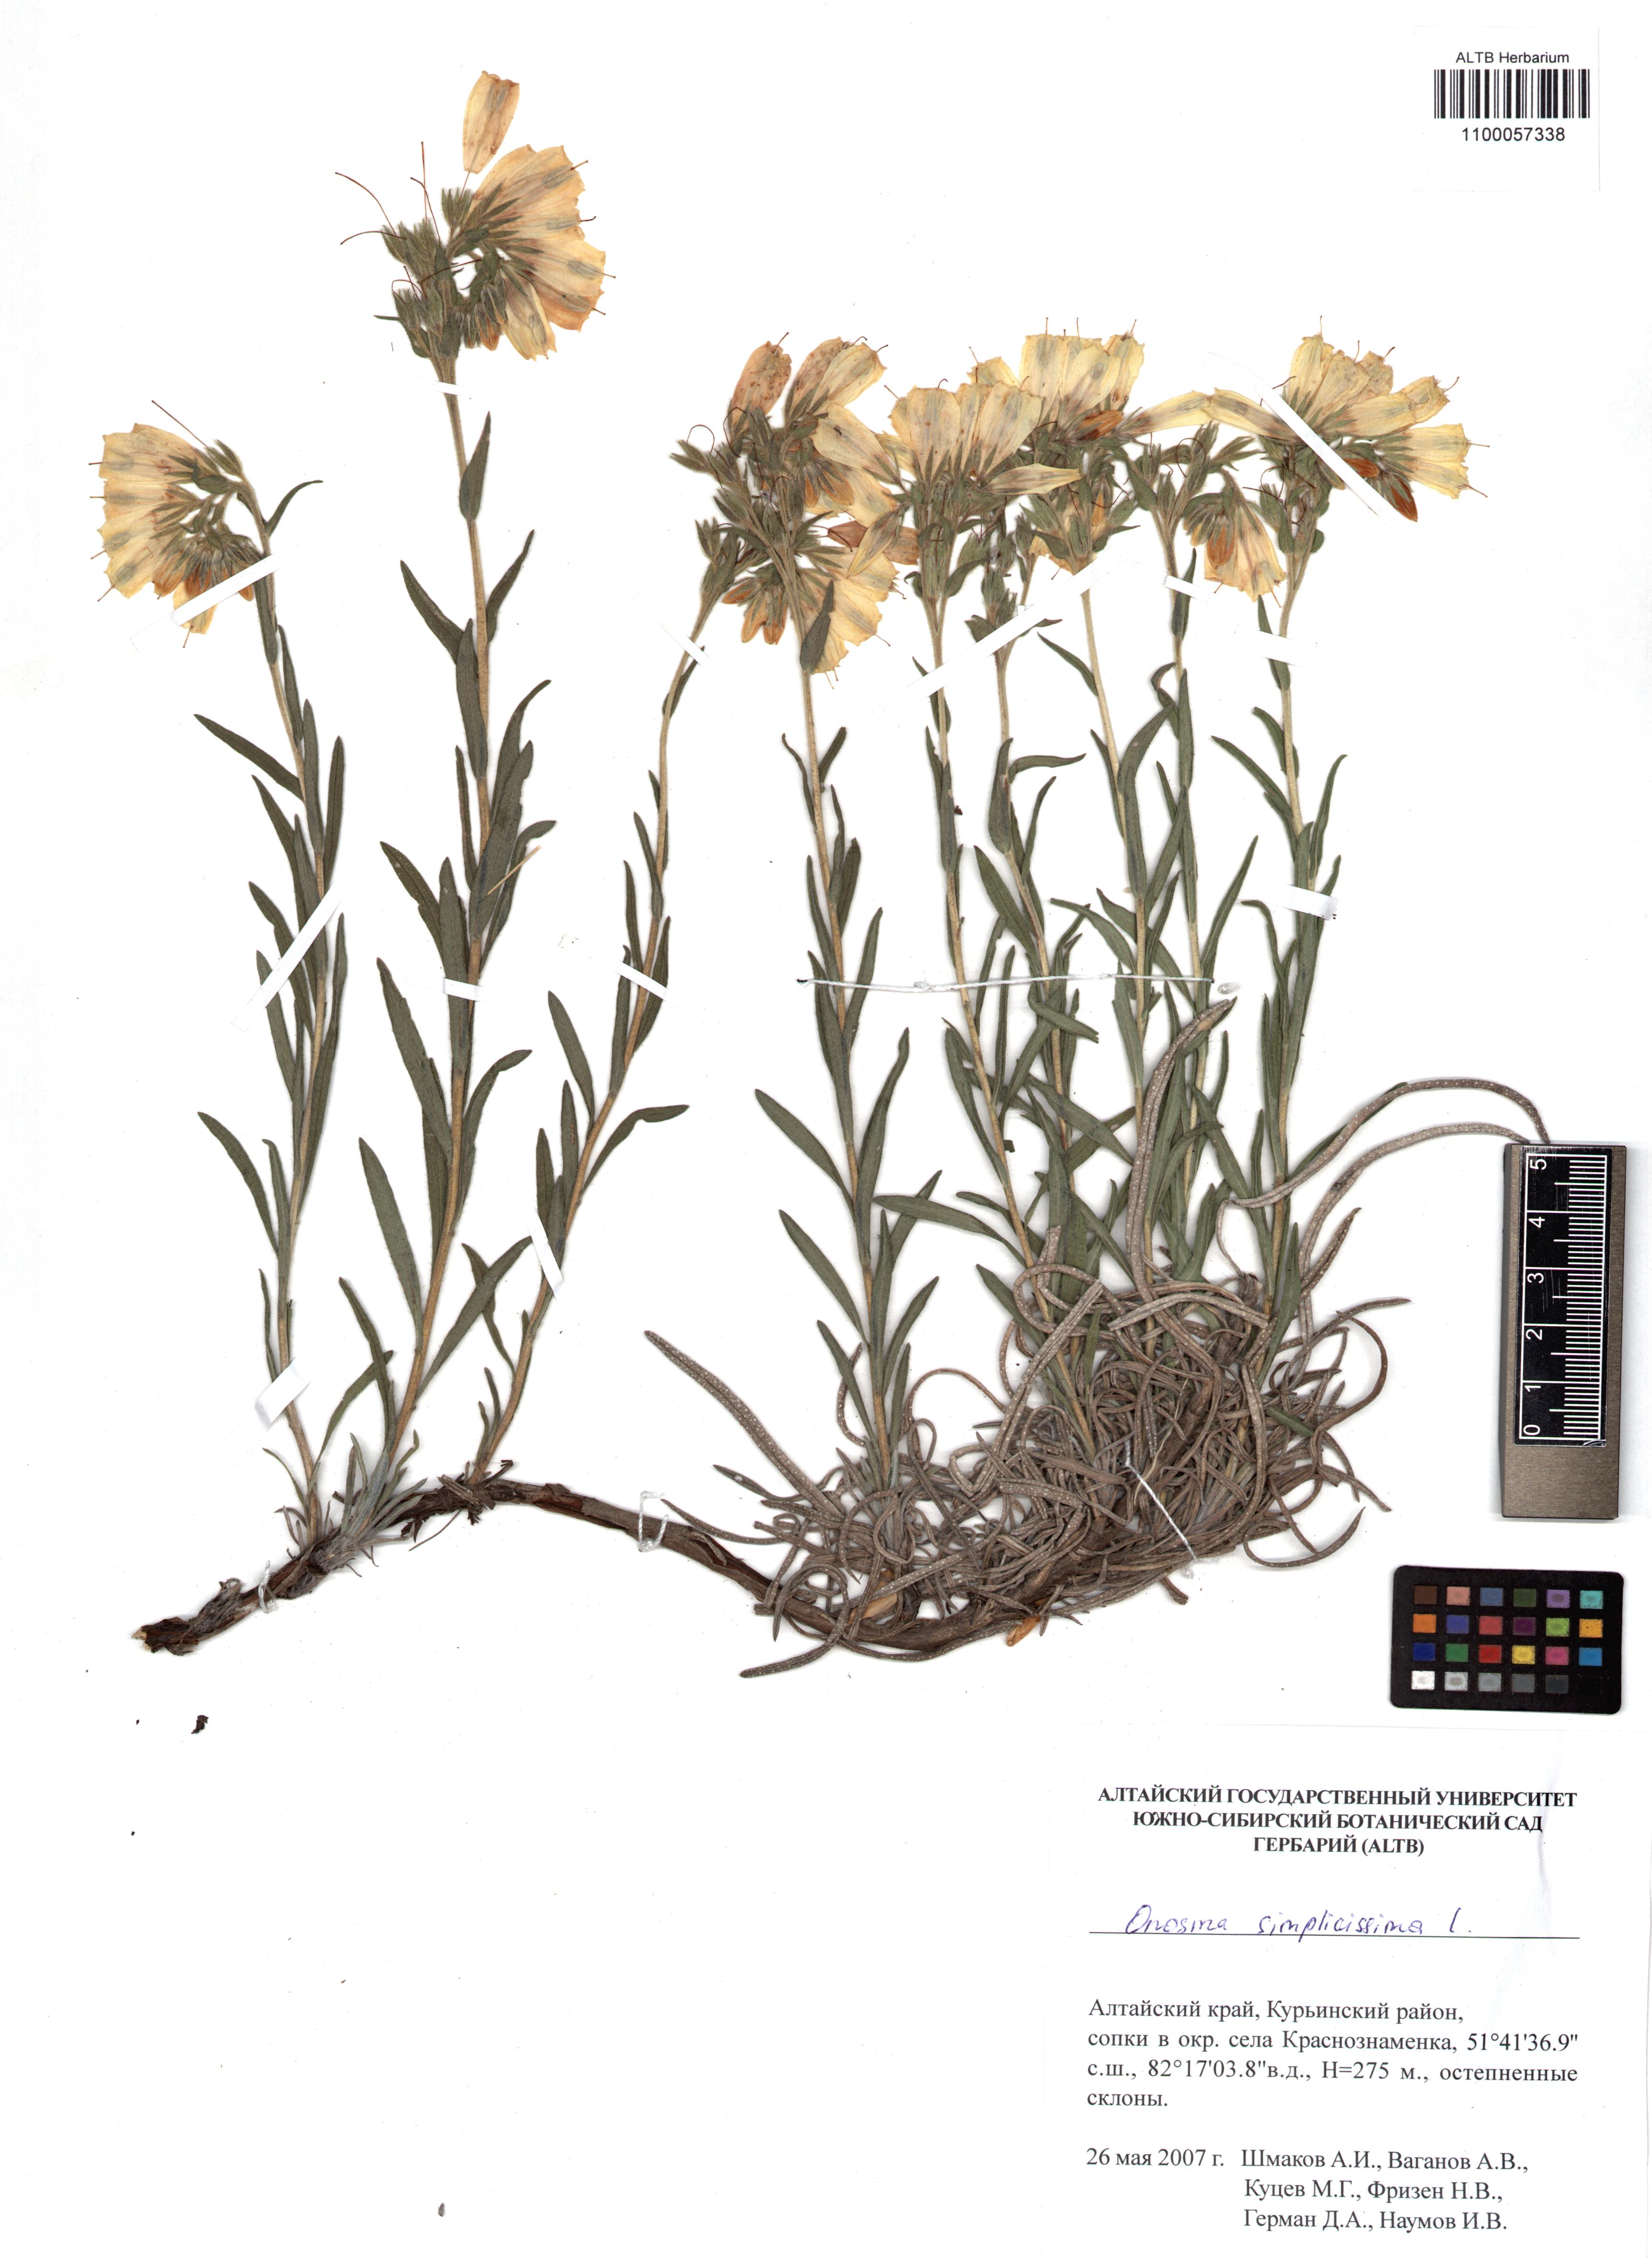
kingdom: Plantae
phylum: Tracheophyta
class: Magnoliopsida
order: Boraginales
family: Boraginaceae
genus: Onosma
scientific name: Onosma simplicissima
